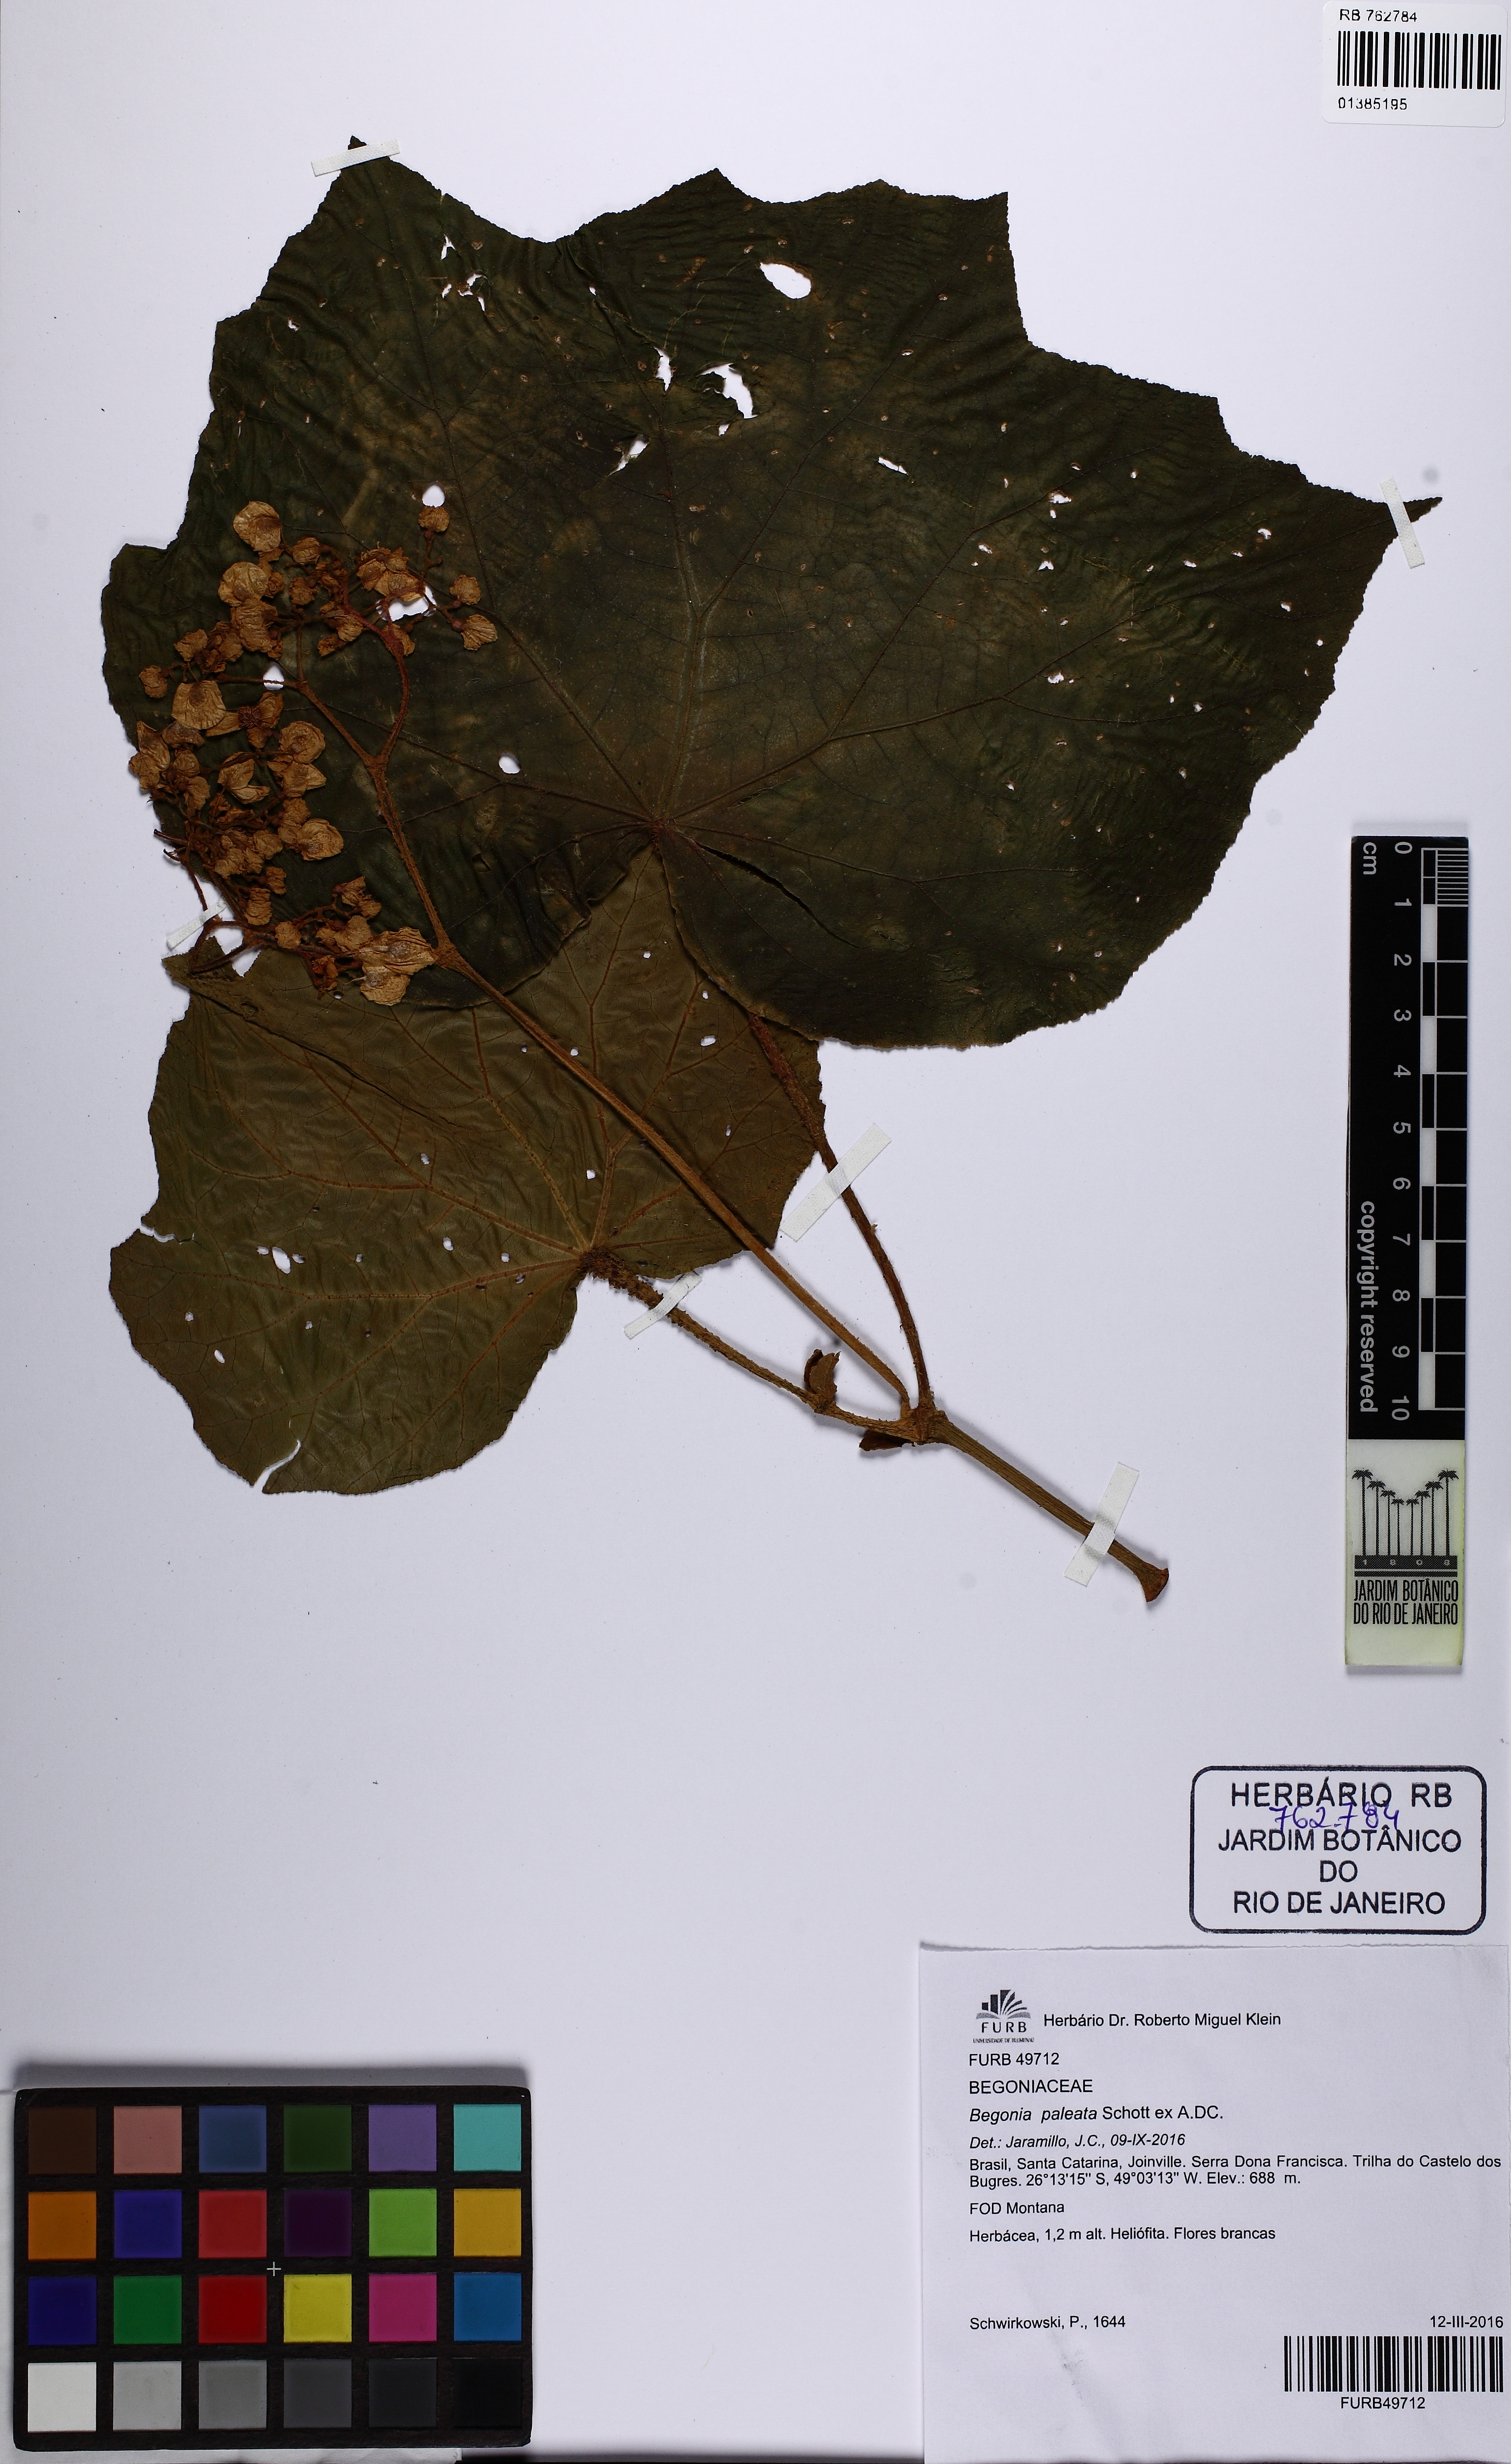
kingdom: Plantae
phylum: Tracheophyta
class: Magnoliopsida
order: Cucurbitales
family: Begoniaceae
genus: Begonia
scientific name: Begonia paleata
